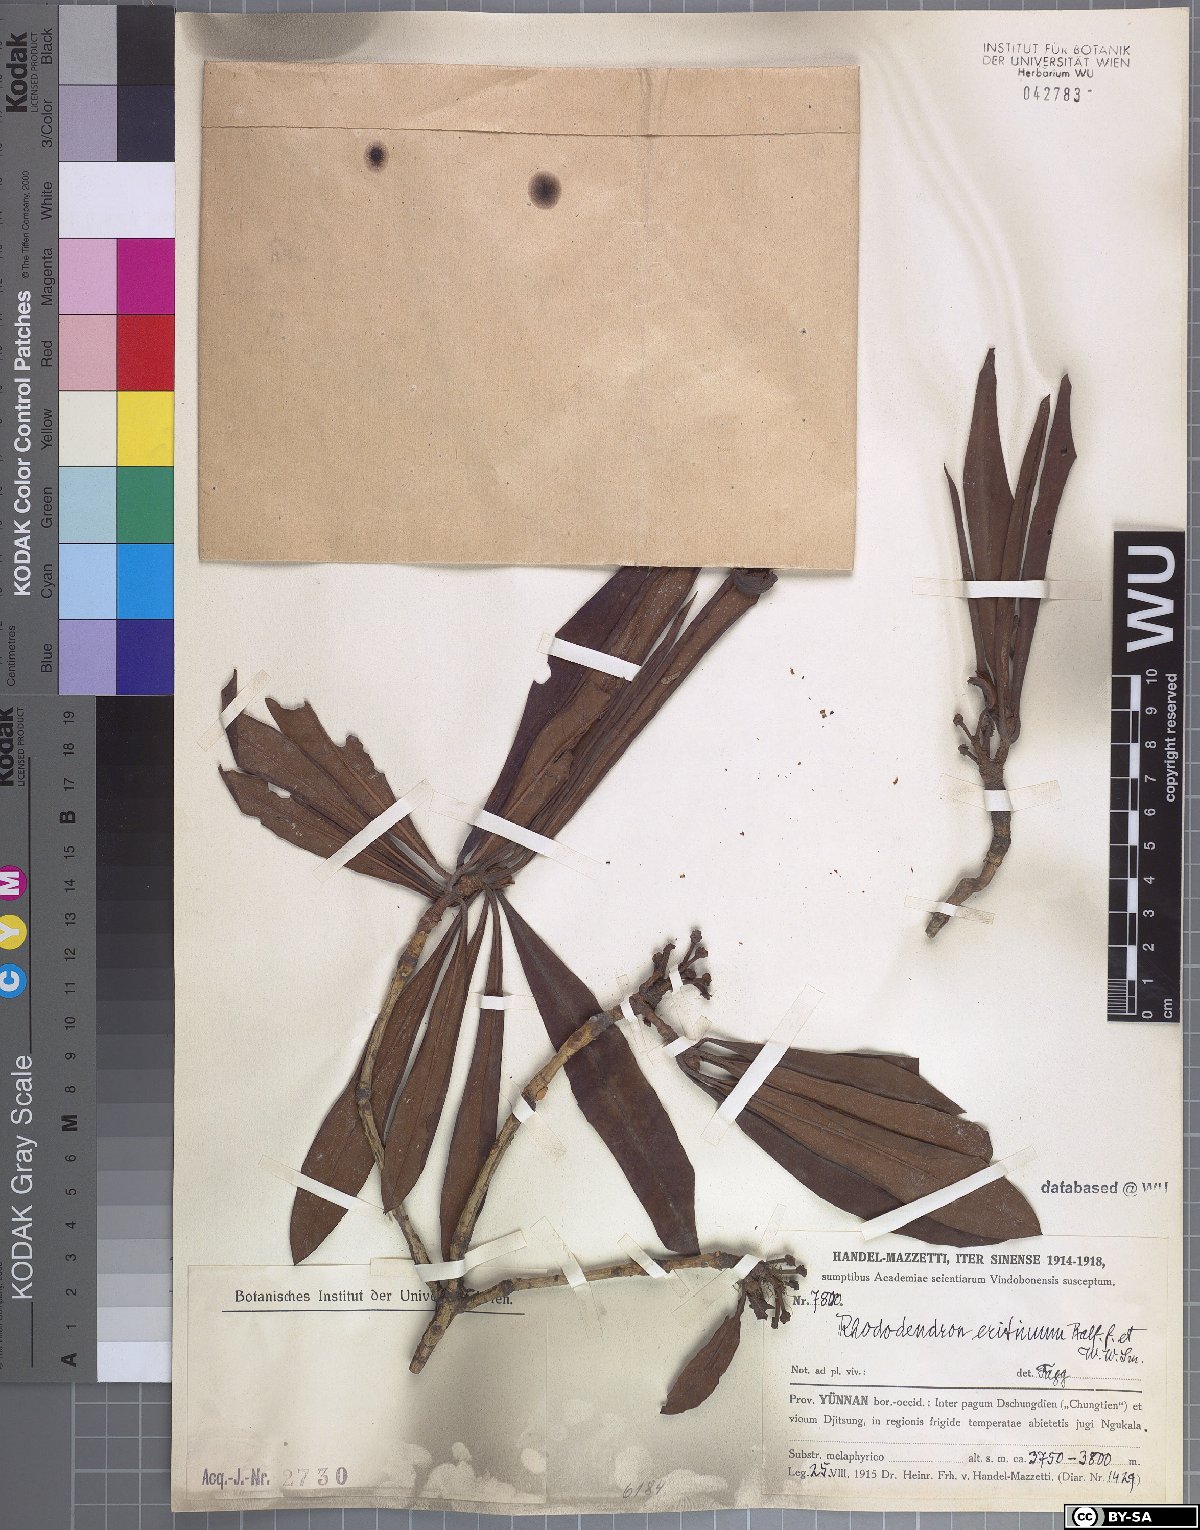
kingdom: Plantae
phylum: Tracheophyta
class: Magnoliopsida
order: Ericales
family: Ericaceae
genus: Rhododendron
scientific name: Rhododendron anthosphaerum
